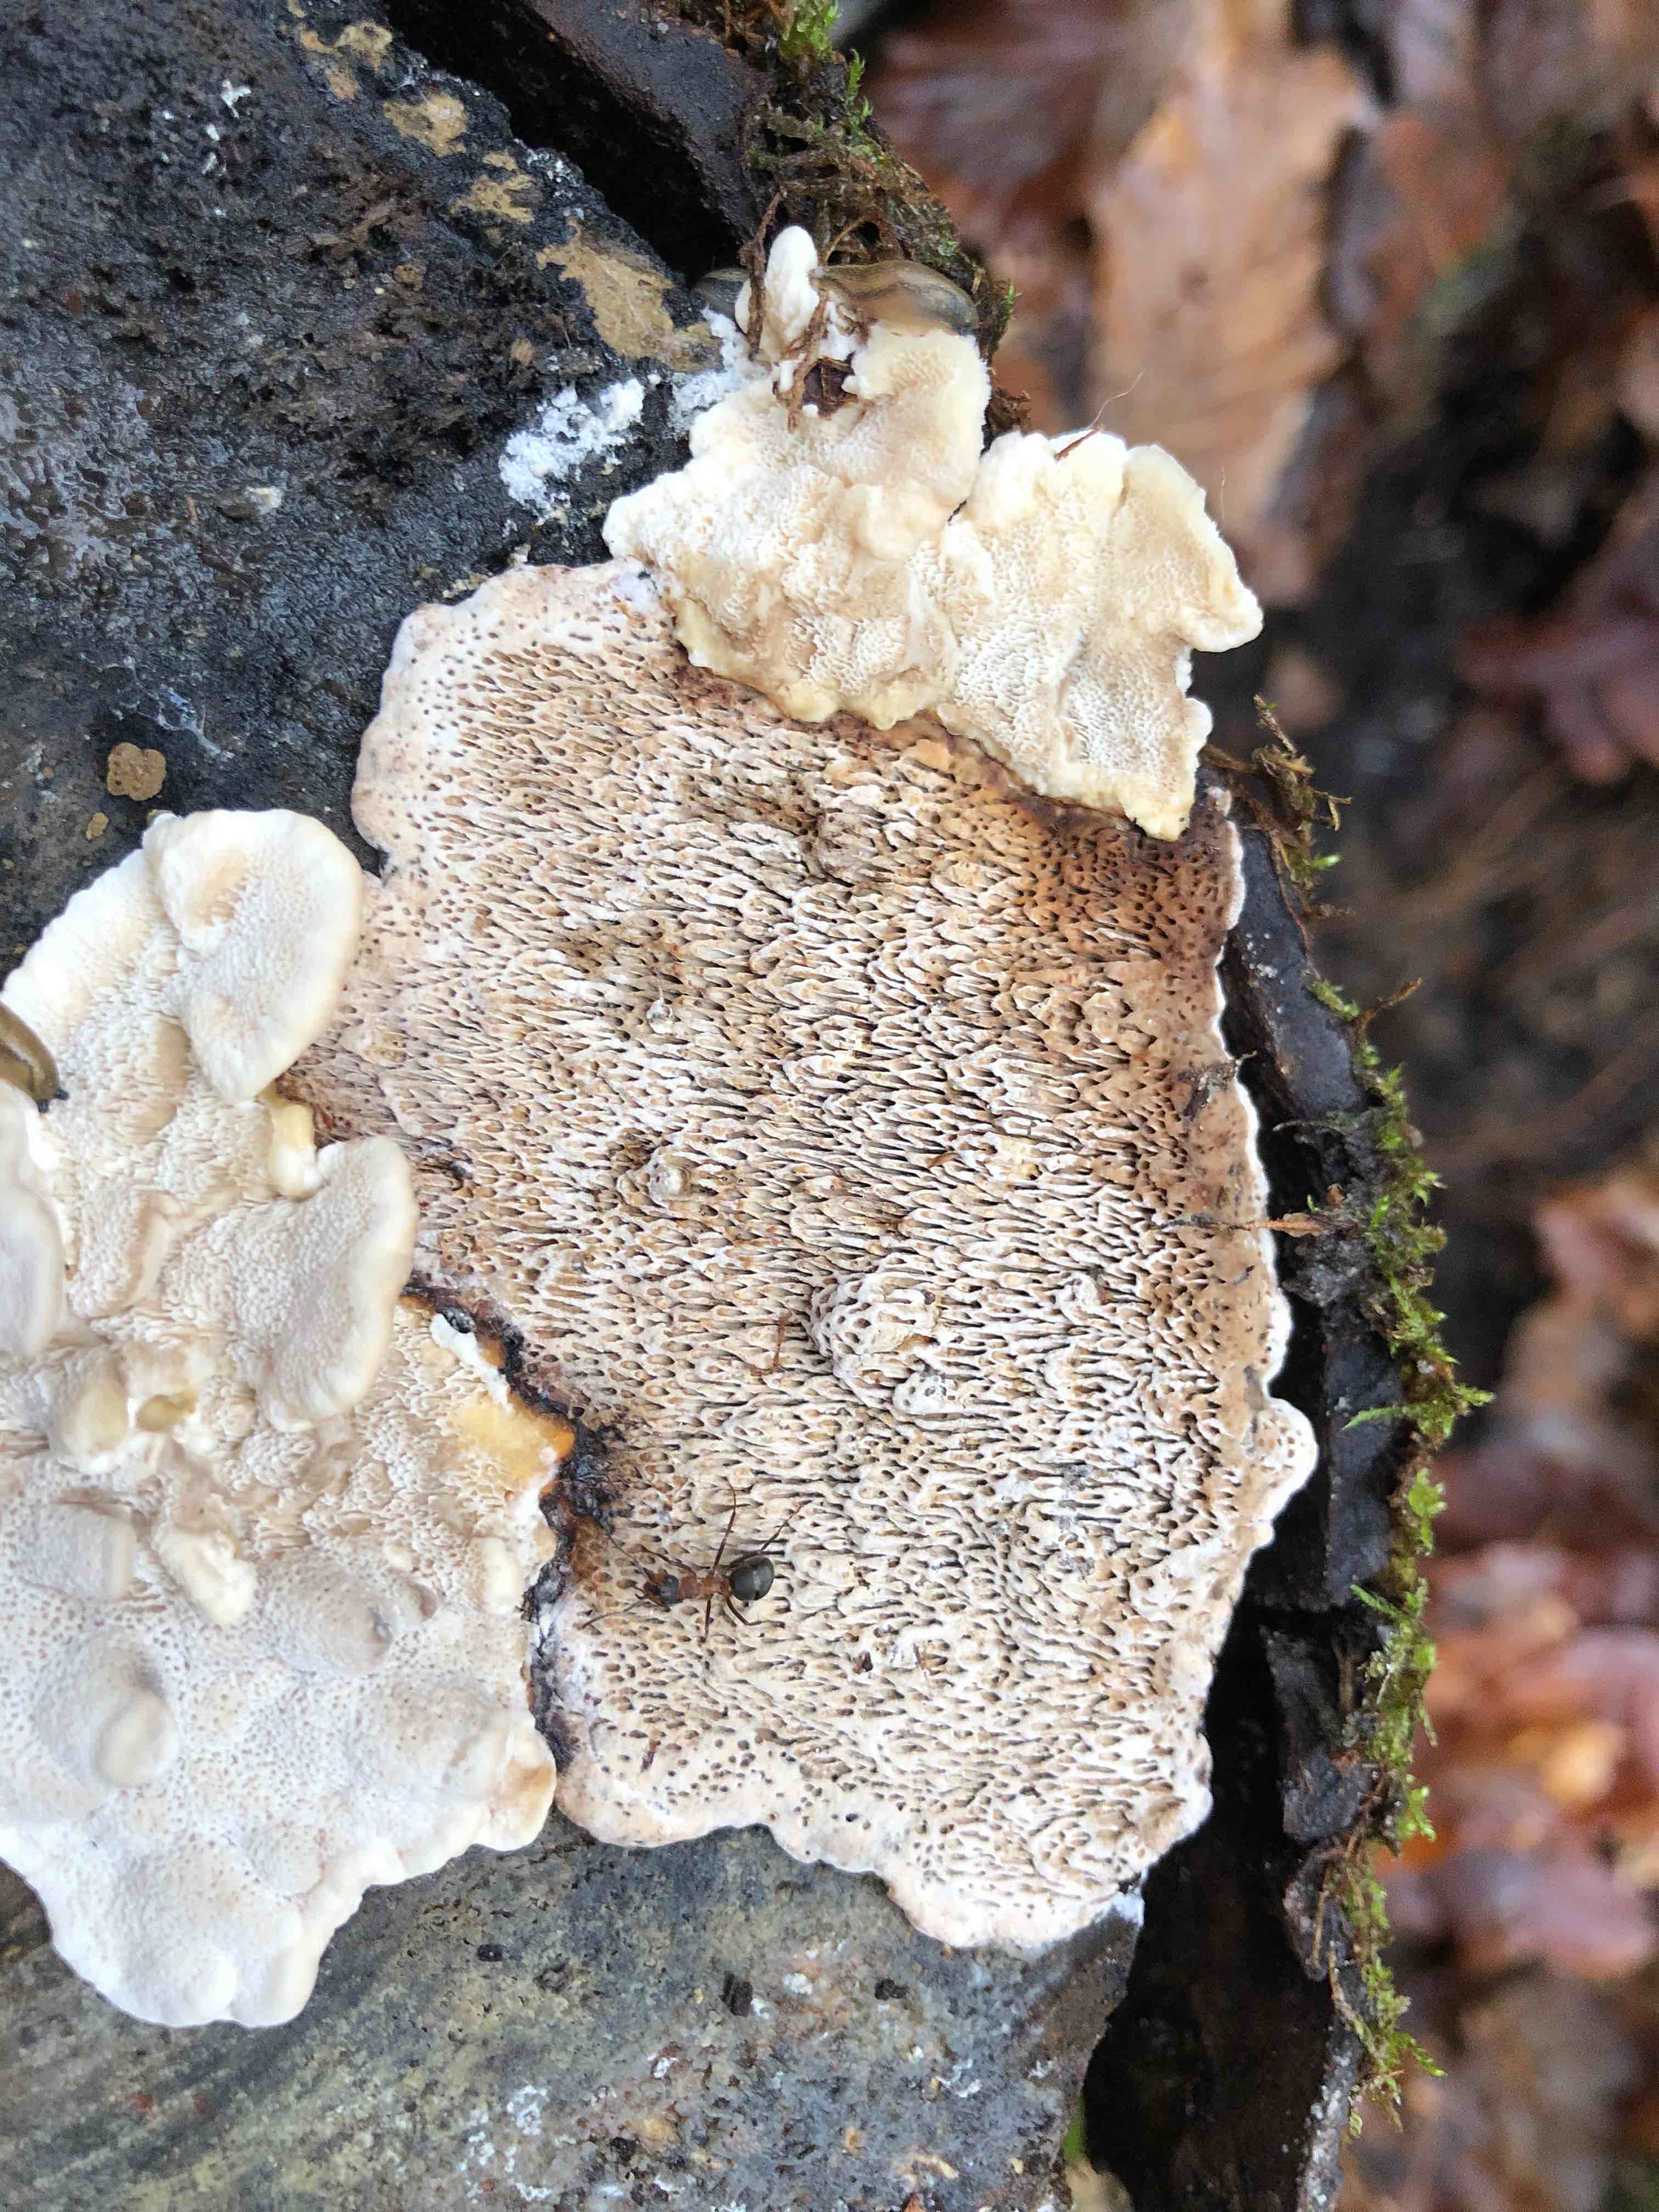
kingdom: Fungi
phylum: Basidiomycota
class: Agaricomycetes
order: Polyporales
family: Polyporaceae
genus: Podofomes
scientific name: Podofomes mollis
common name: blød begporesvamp
